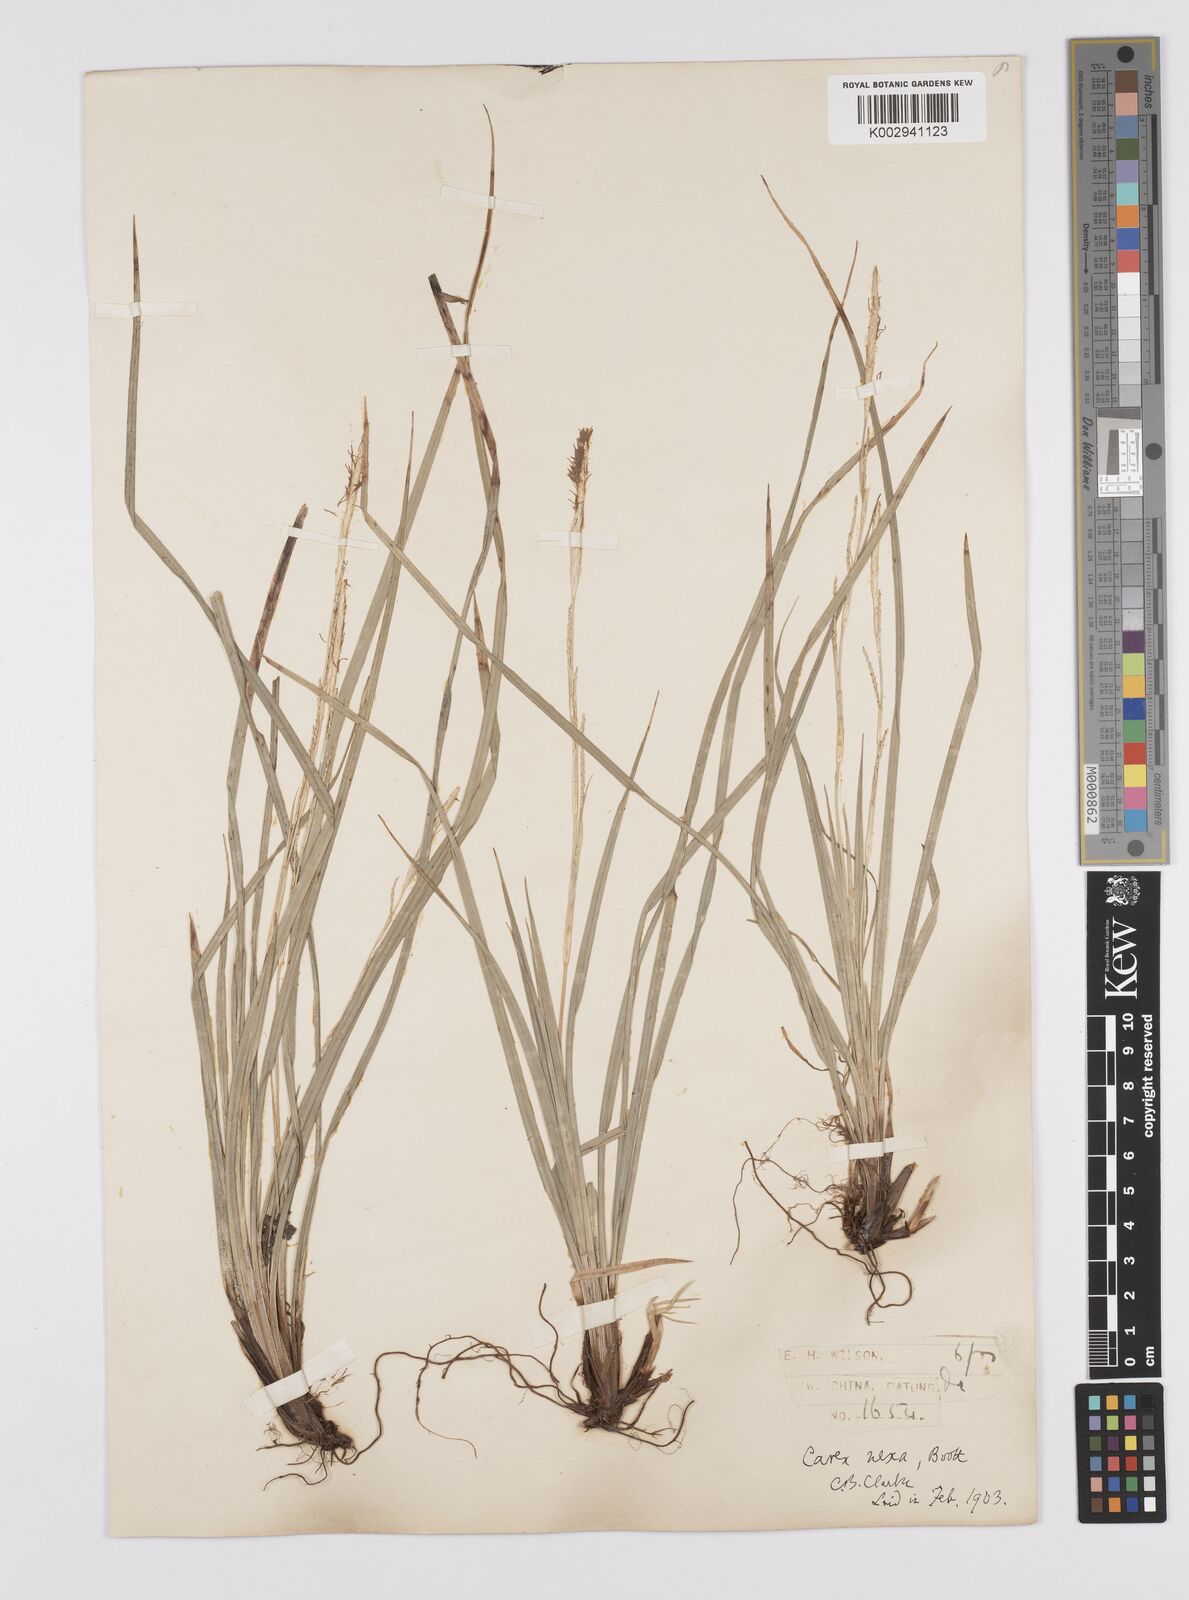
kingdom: Plantae
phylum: Tracheophyta
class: Liliopsida
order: Poales
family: Cyperaceae
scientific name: Cyperaceae
